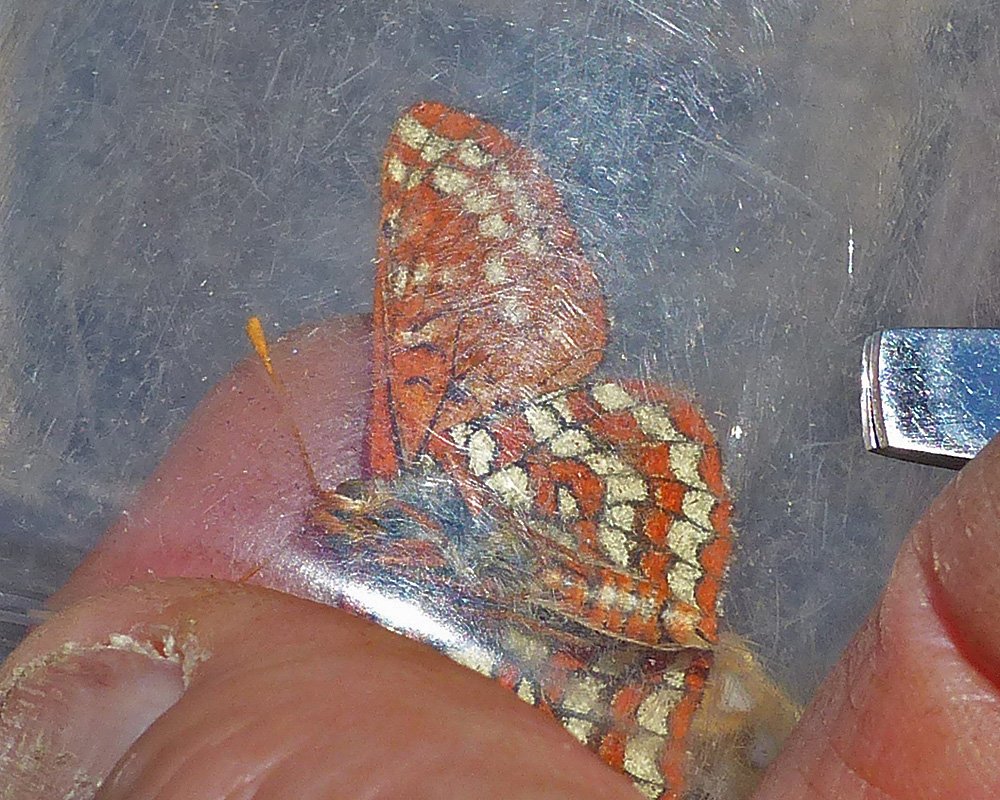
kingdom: Animalia
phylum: Arthropoda
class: Insecta
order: Lepidoptera
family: Nymphalidae
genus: Occidryas
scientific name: Occidryas colon
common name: Snowberry Checkerspot
